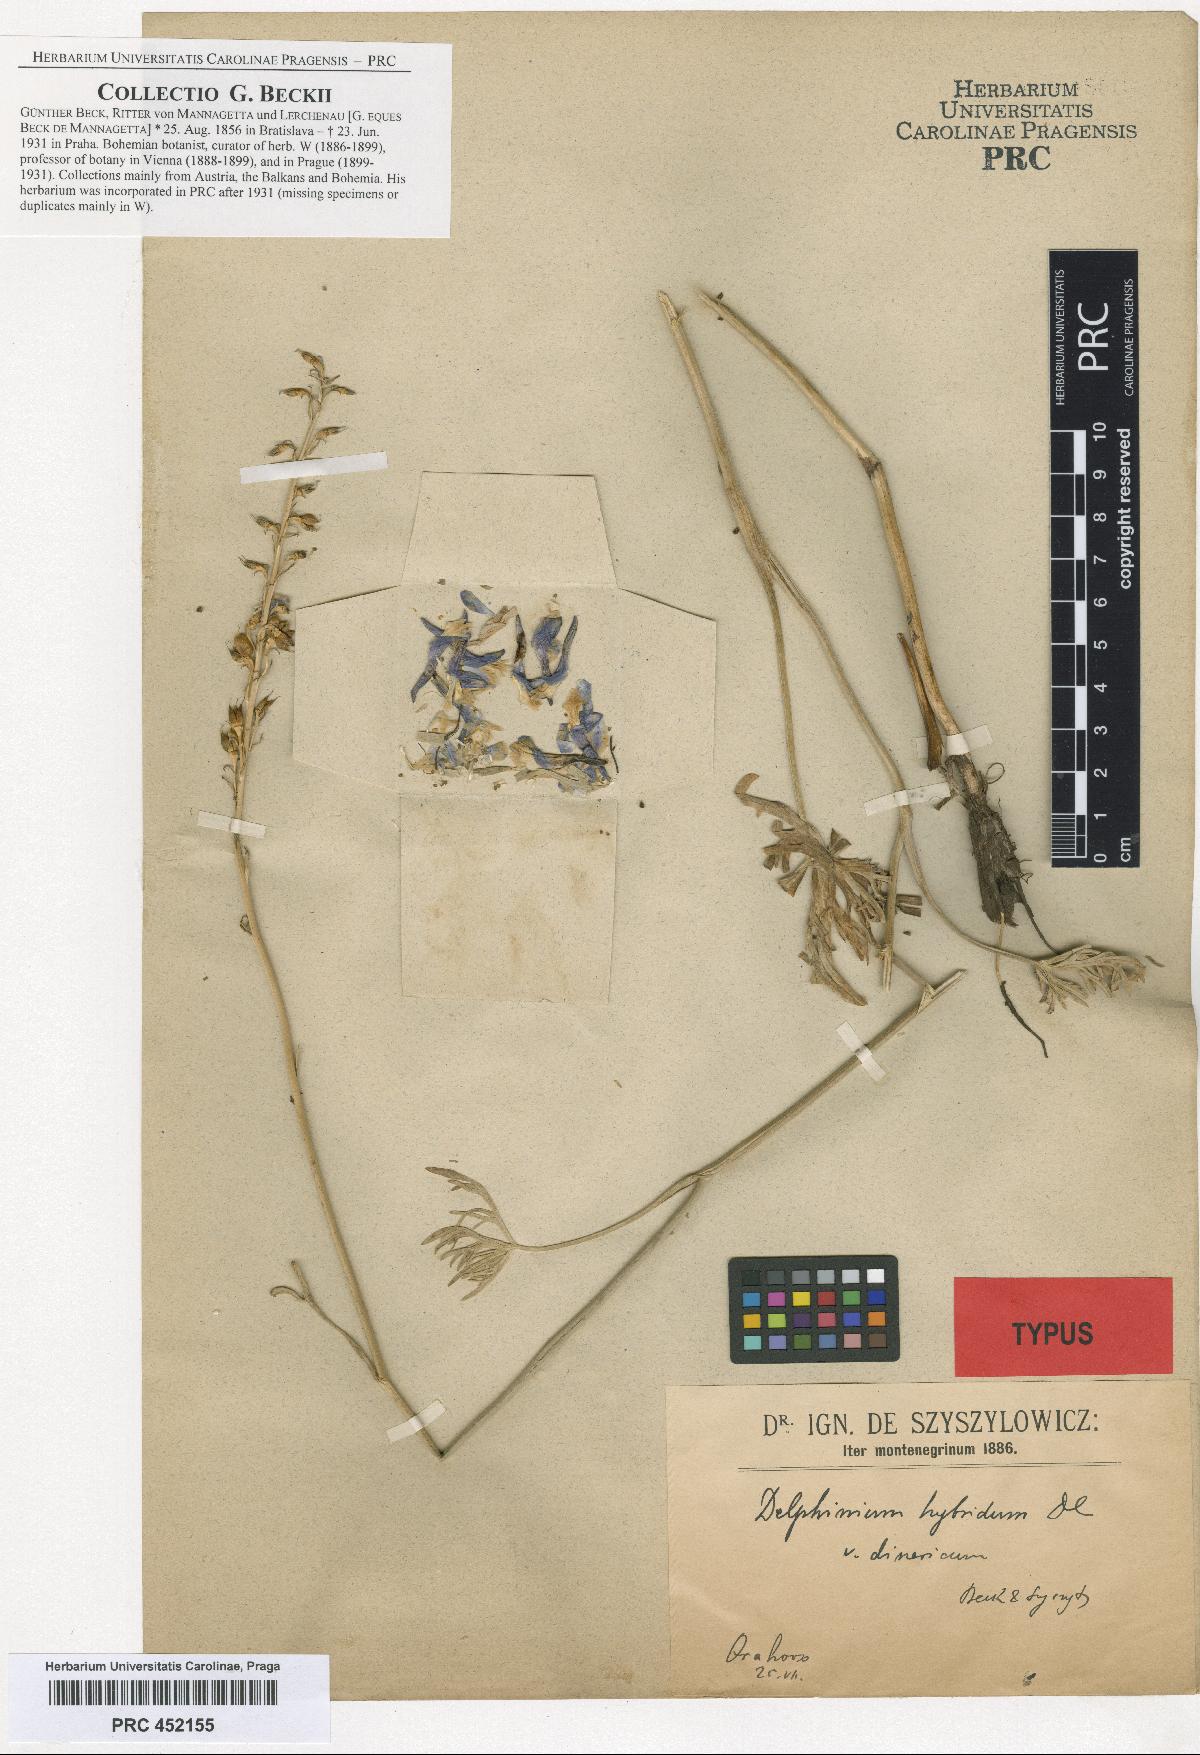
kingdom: Plantae
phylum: Tracheophyta
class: Magnoliopsida
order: Ranunculales
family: Ranunculaceae
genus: Delphinium
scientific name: Delphinium fissum
